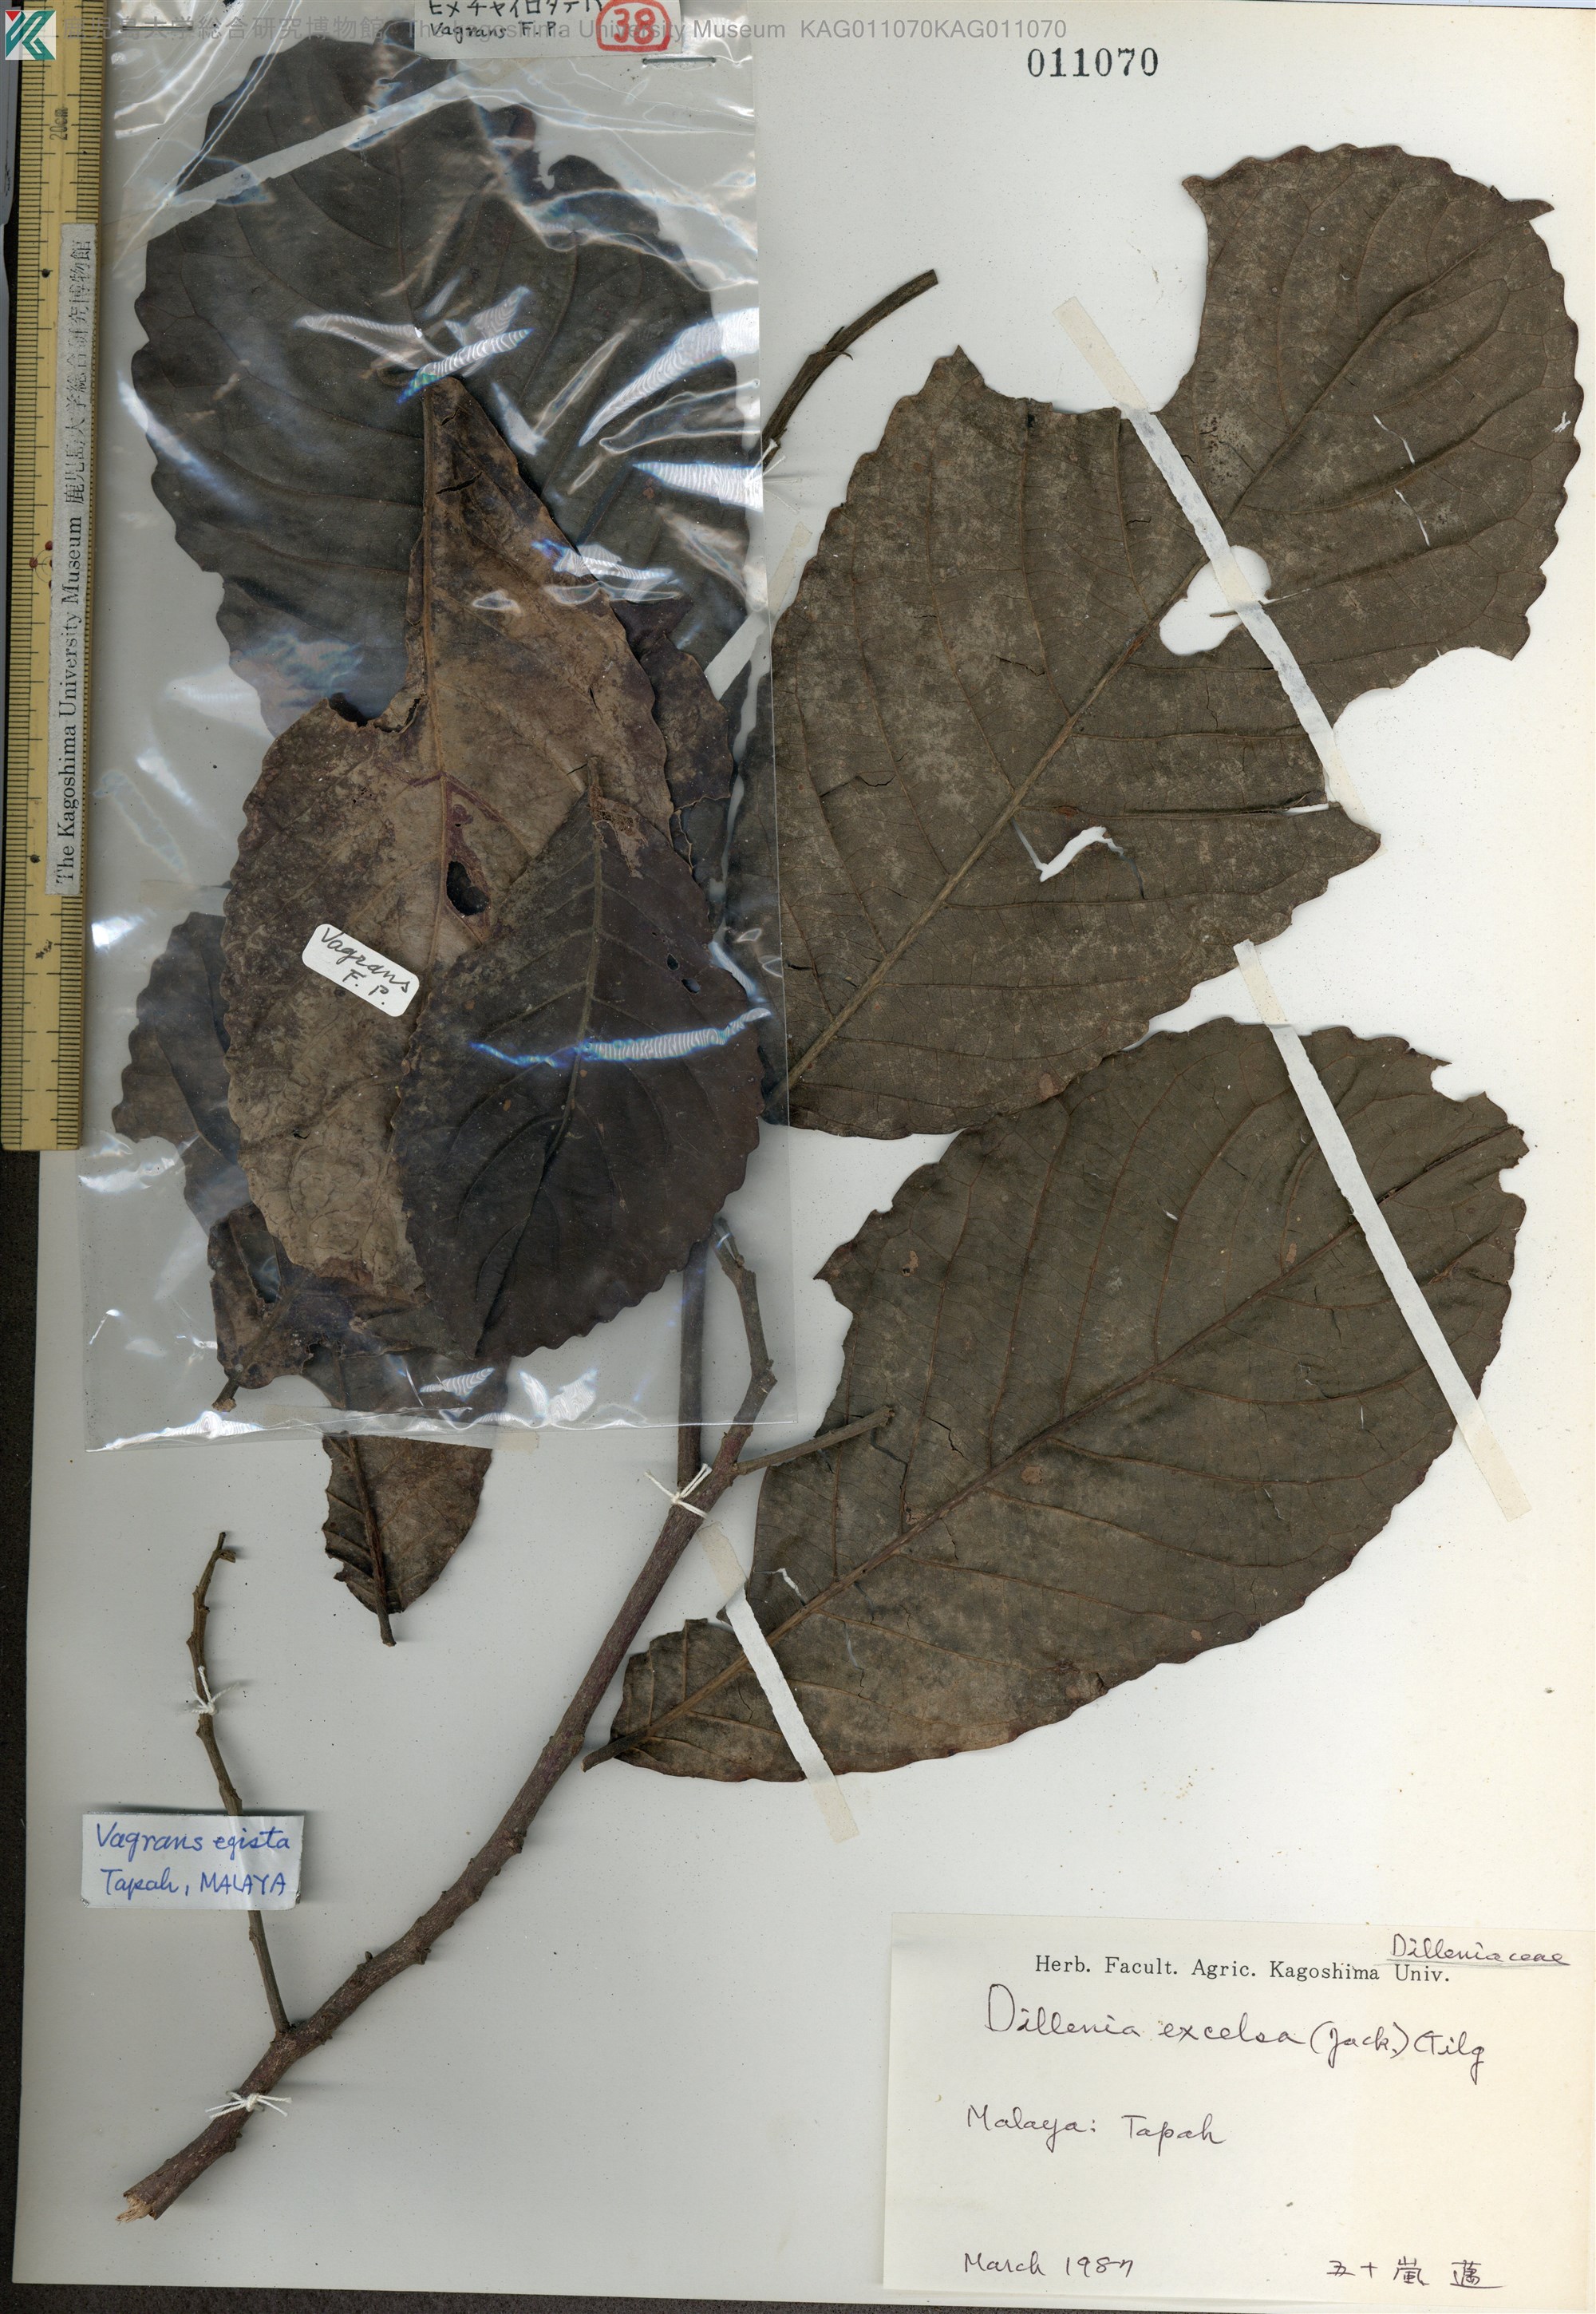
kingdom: Plantae
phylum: Tracheophyta
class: Magnoliopsida
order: Dilleniales
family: Dilleniaceae
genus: Dillenia
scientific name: Dillenia excelsa
